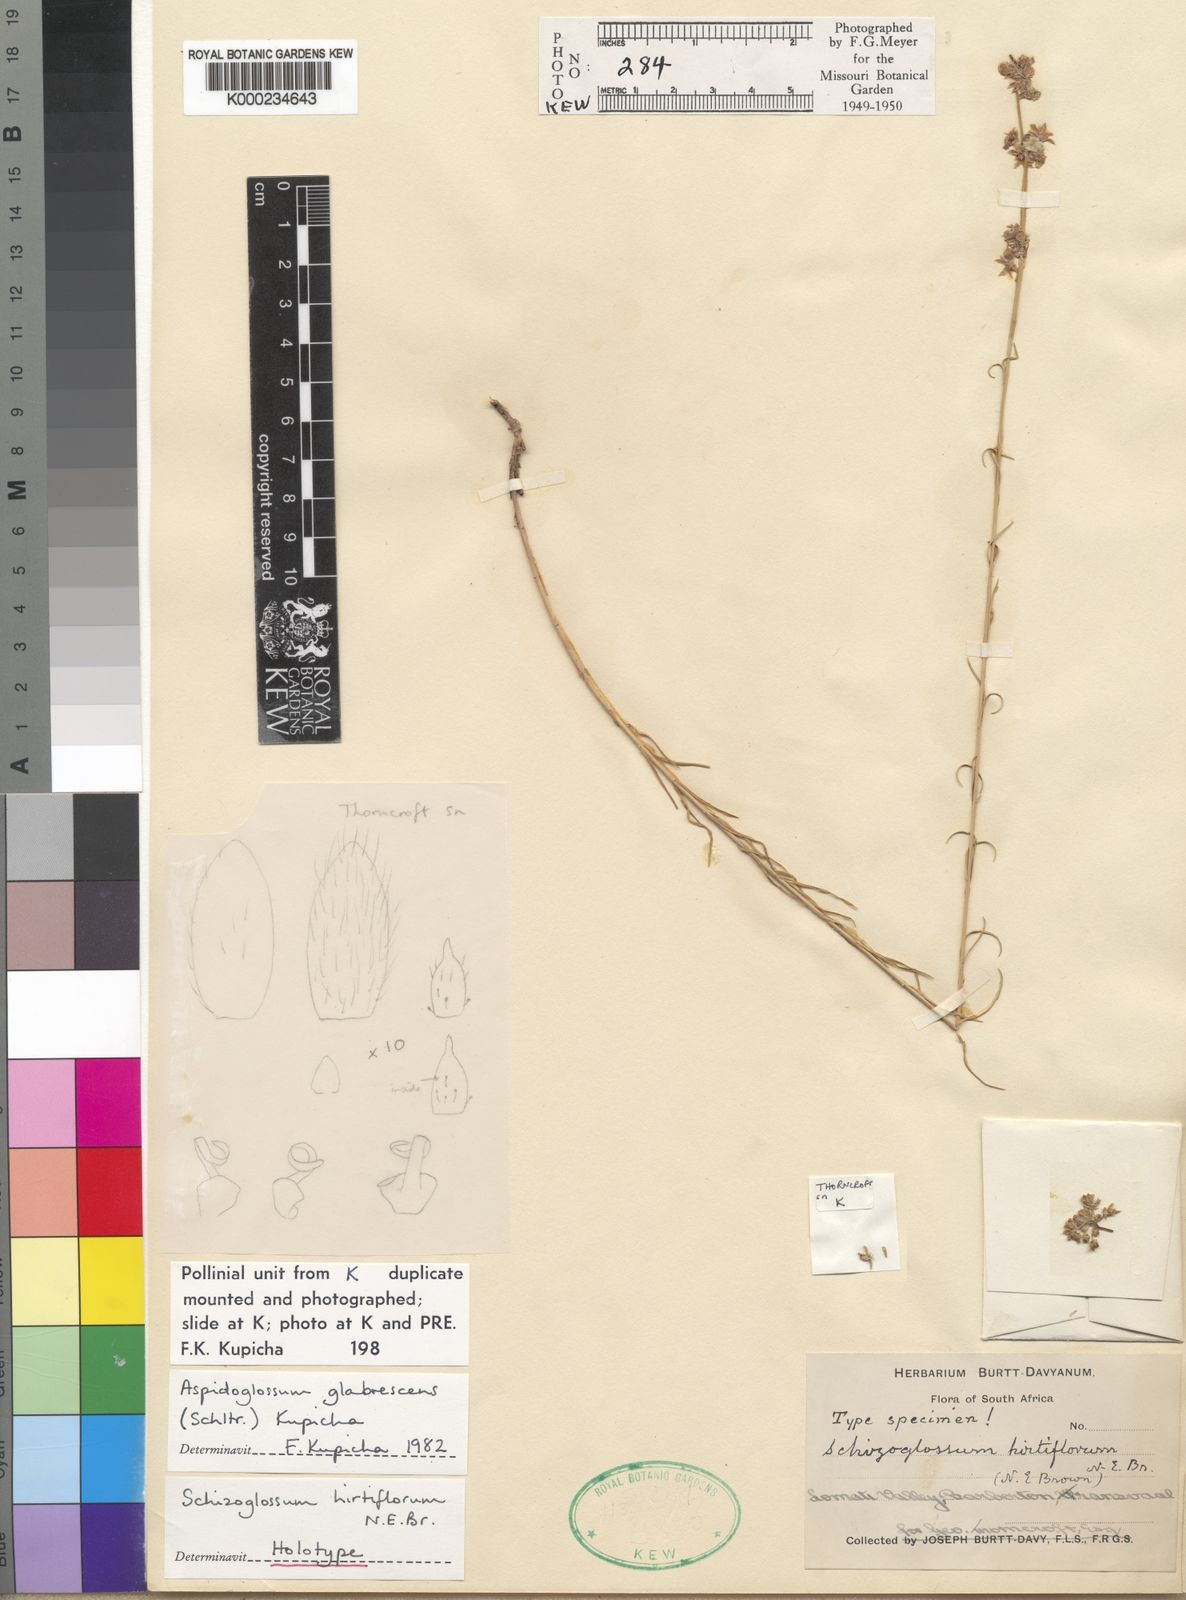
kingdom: Plantae
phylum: Tracheophyta
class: Magnoliopsida
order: Gentianales
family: Apocynaceae
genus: Aspidoglossum
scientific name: Aspidoglossum glabrescens
